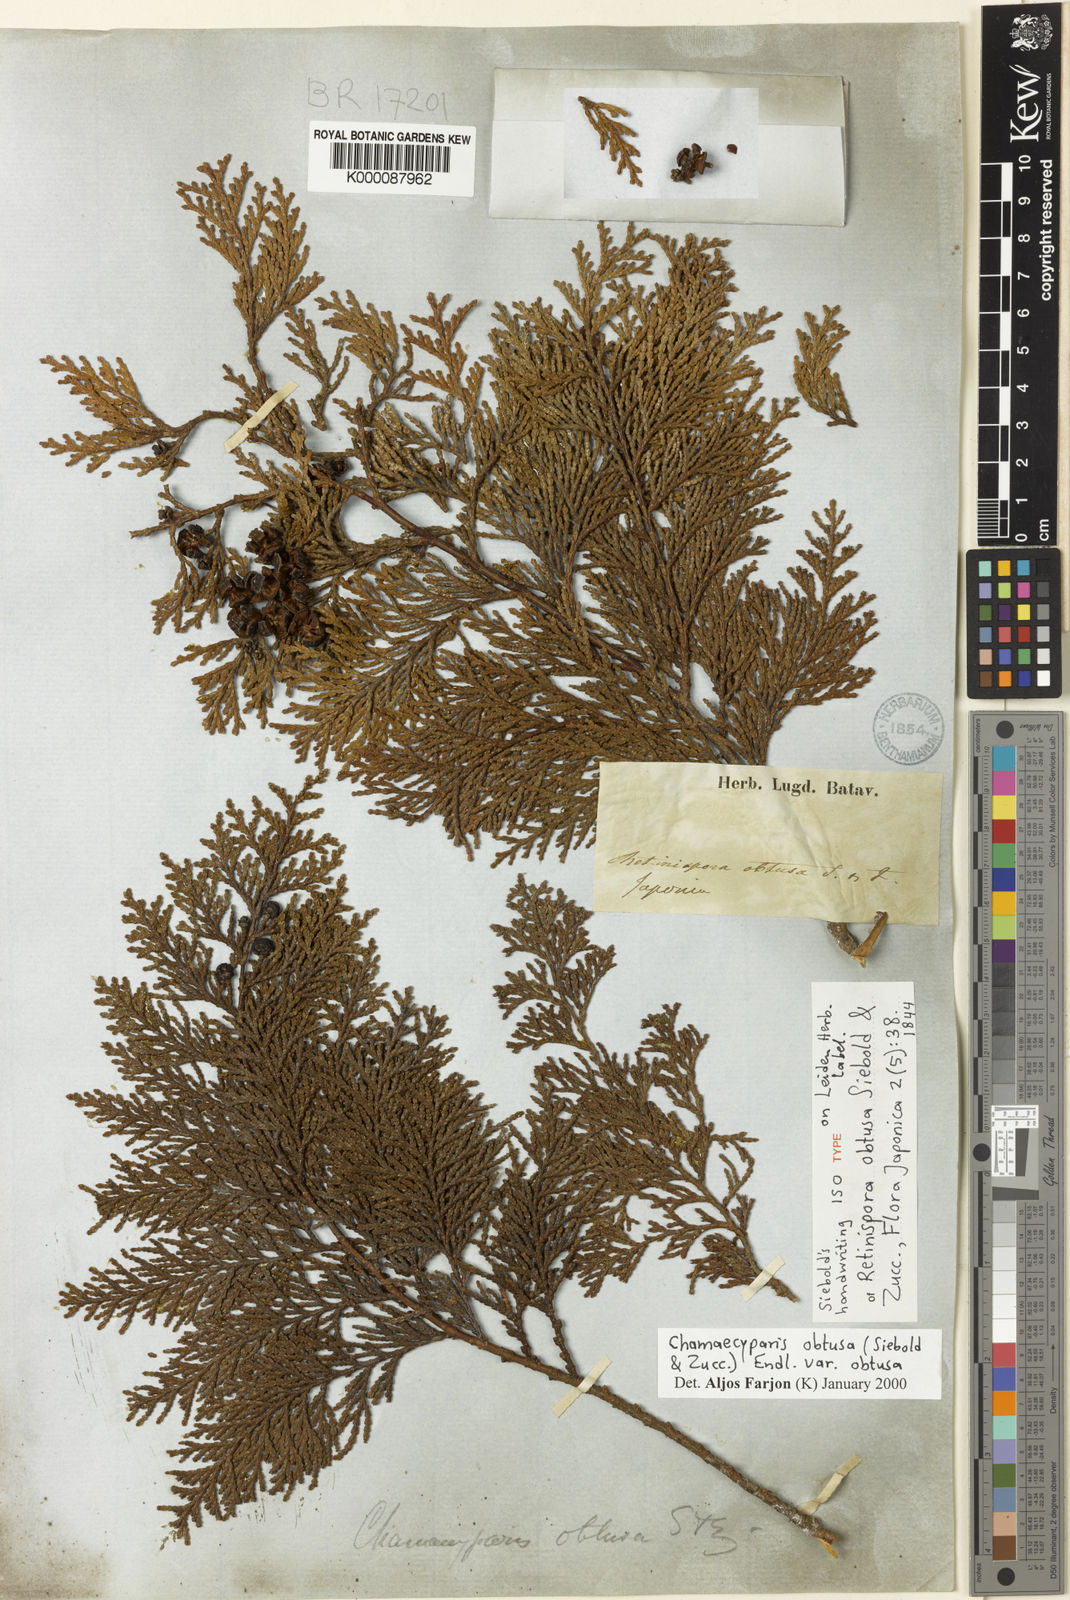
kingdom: Plantae
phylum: Tracheophyta
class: Pinopsida
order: Pinales
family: Cupressaceae
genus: Chamaecyparis
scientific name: Chamaecyparis obtusa
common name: Hinoki false cypress
